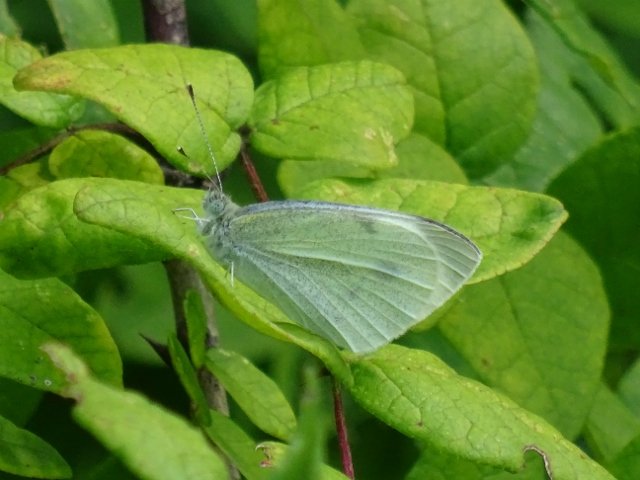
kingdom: Animalia
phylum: Arthropoda
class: Insecta
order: Lepidoptera
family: Pieridae
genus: Pieris
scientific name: Pieris rapae
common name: Cabbage White
